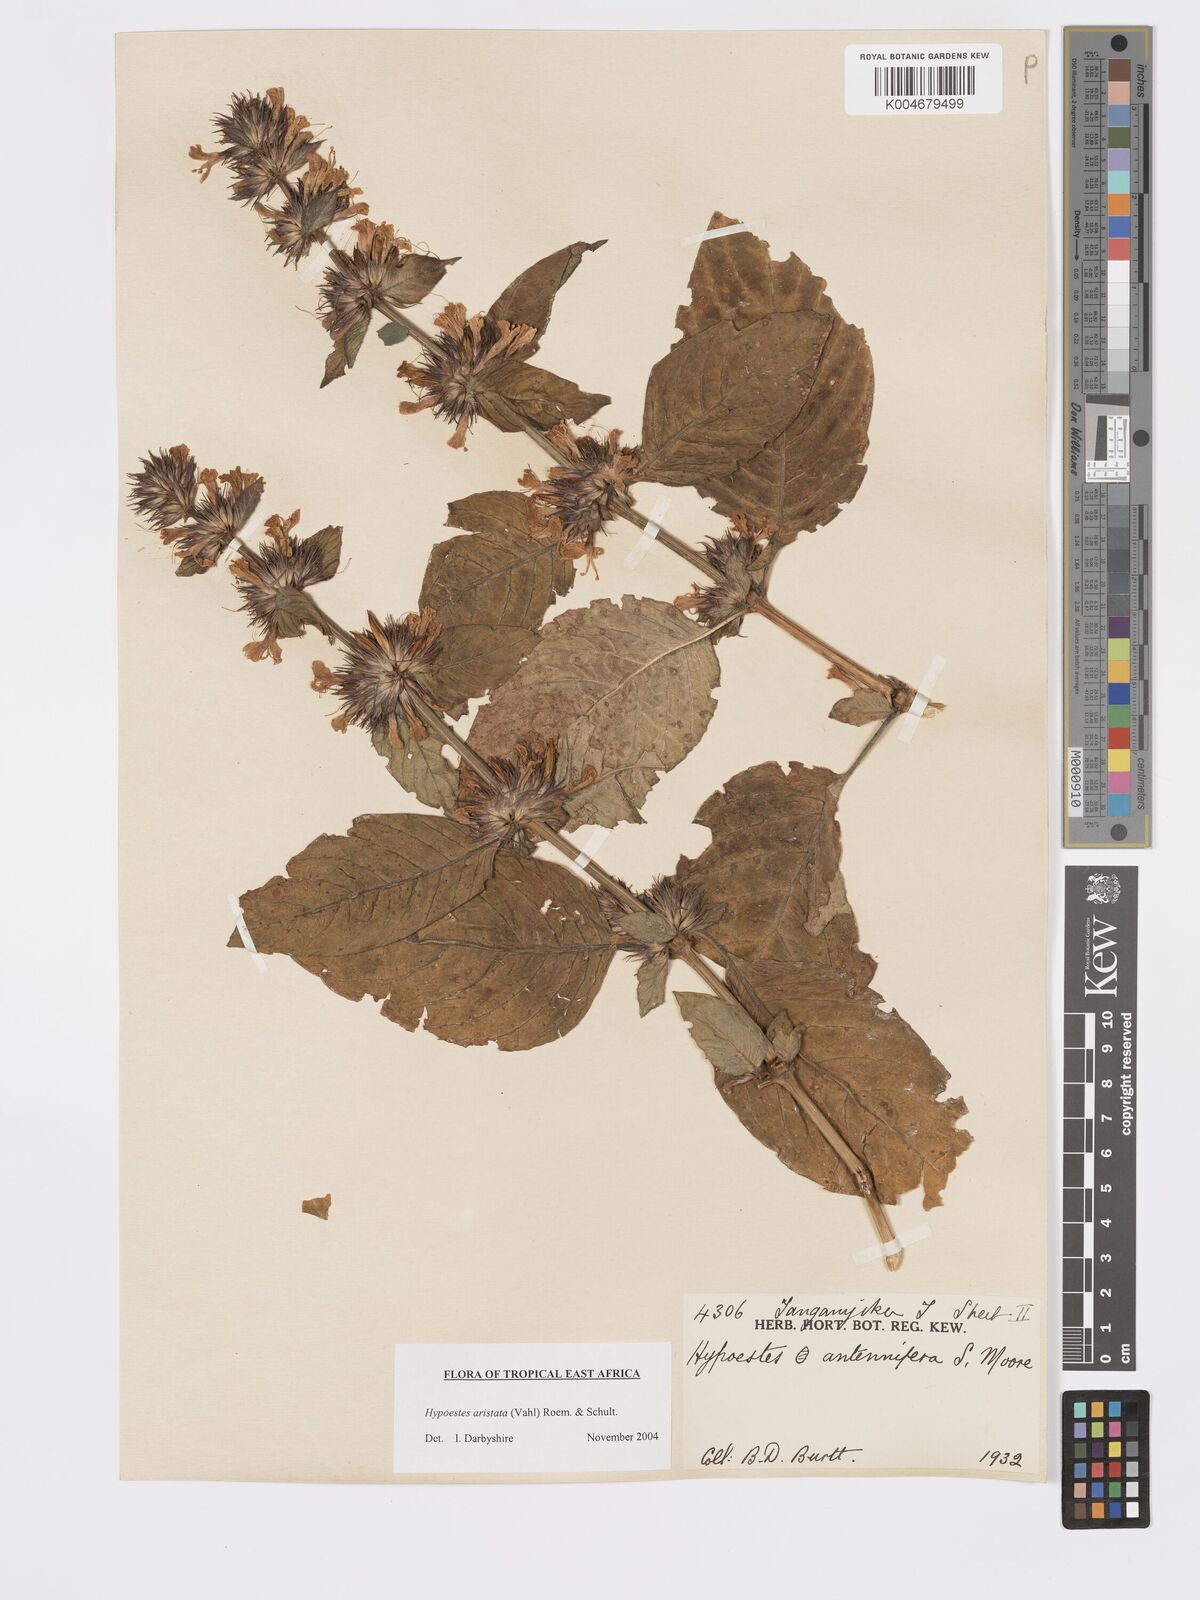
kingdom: Plantae
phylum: Tracheophyta
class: Magnoliopsida
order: Lamiales
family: Acanthaceae
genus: Hypoestes
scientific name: Hypoestes aristata
